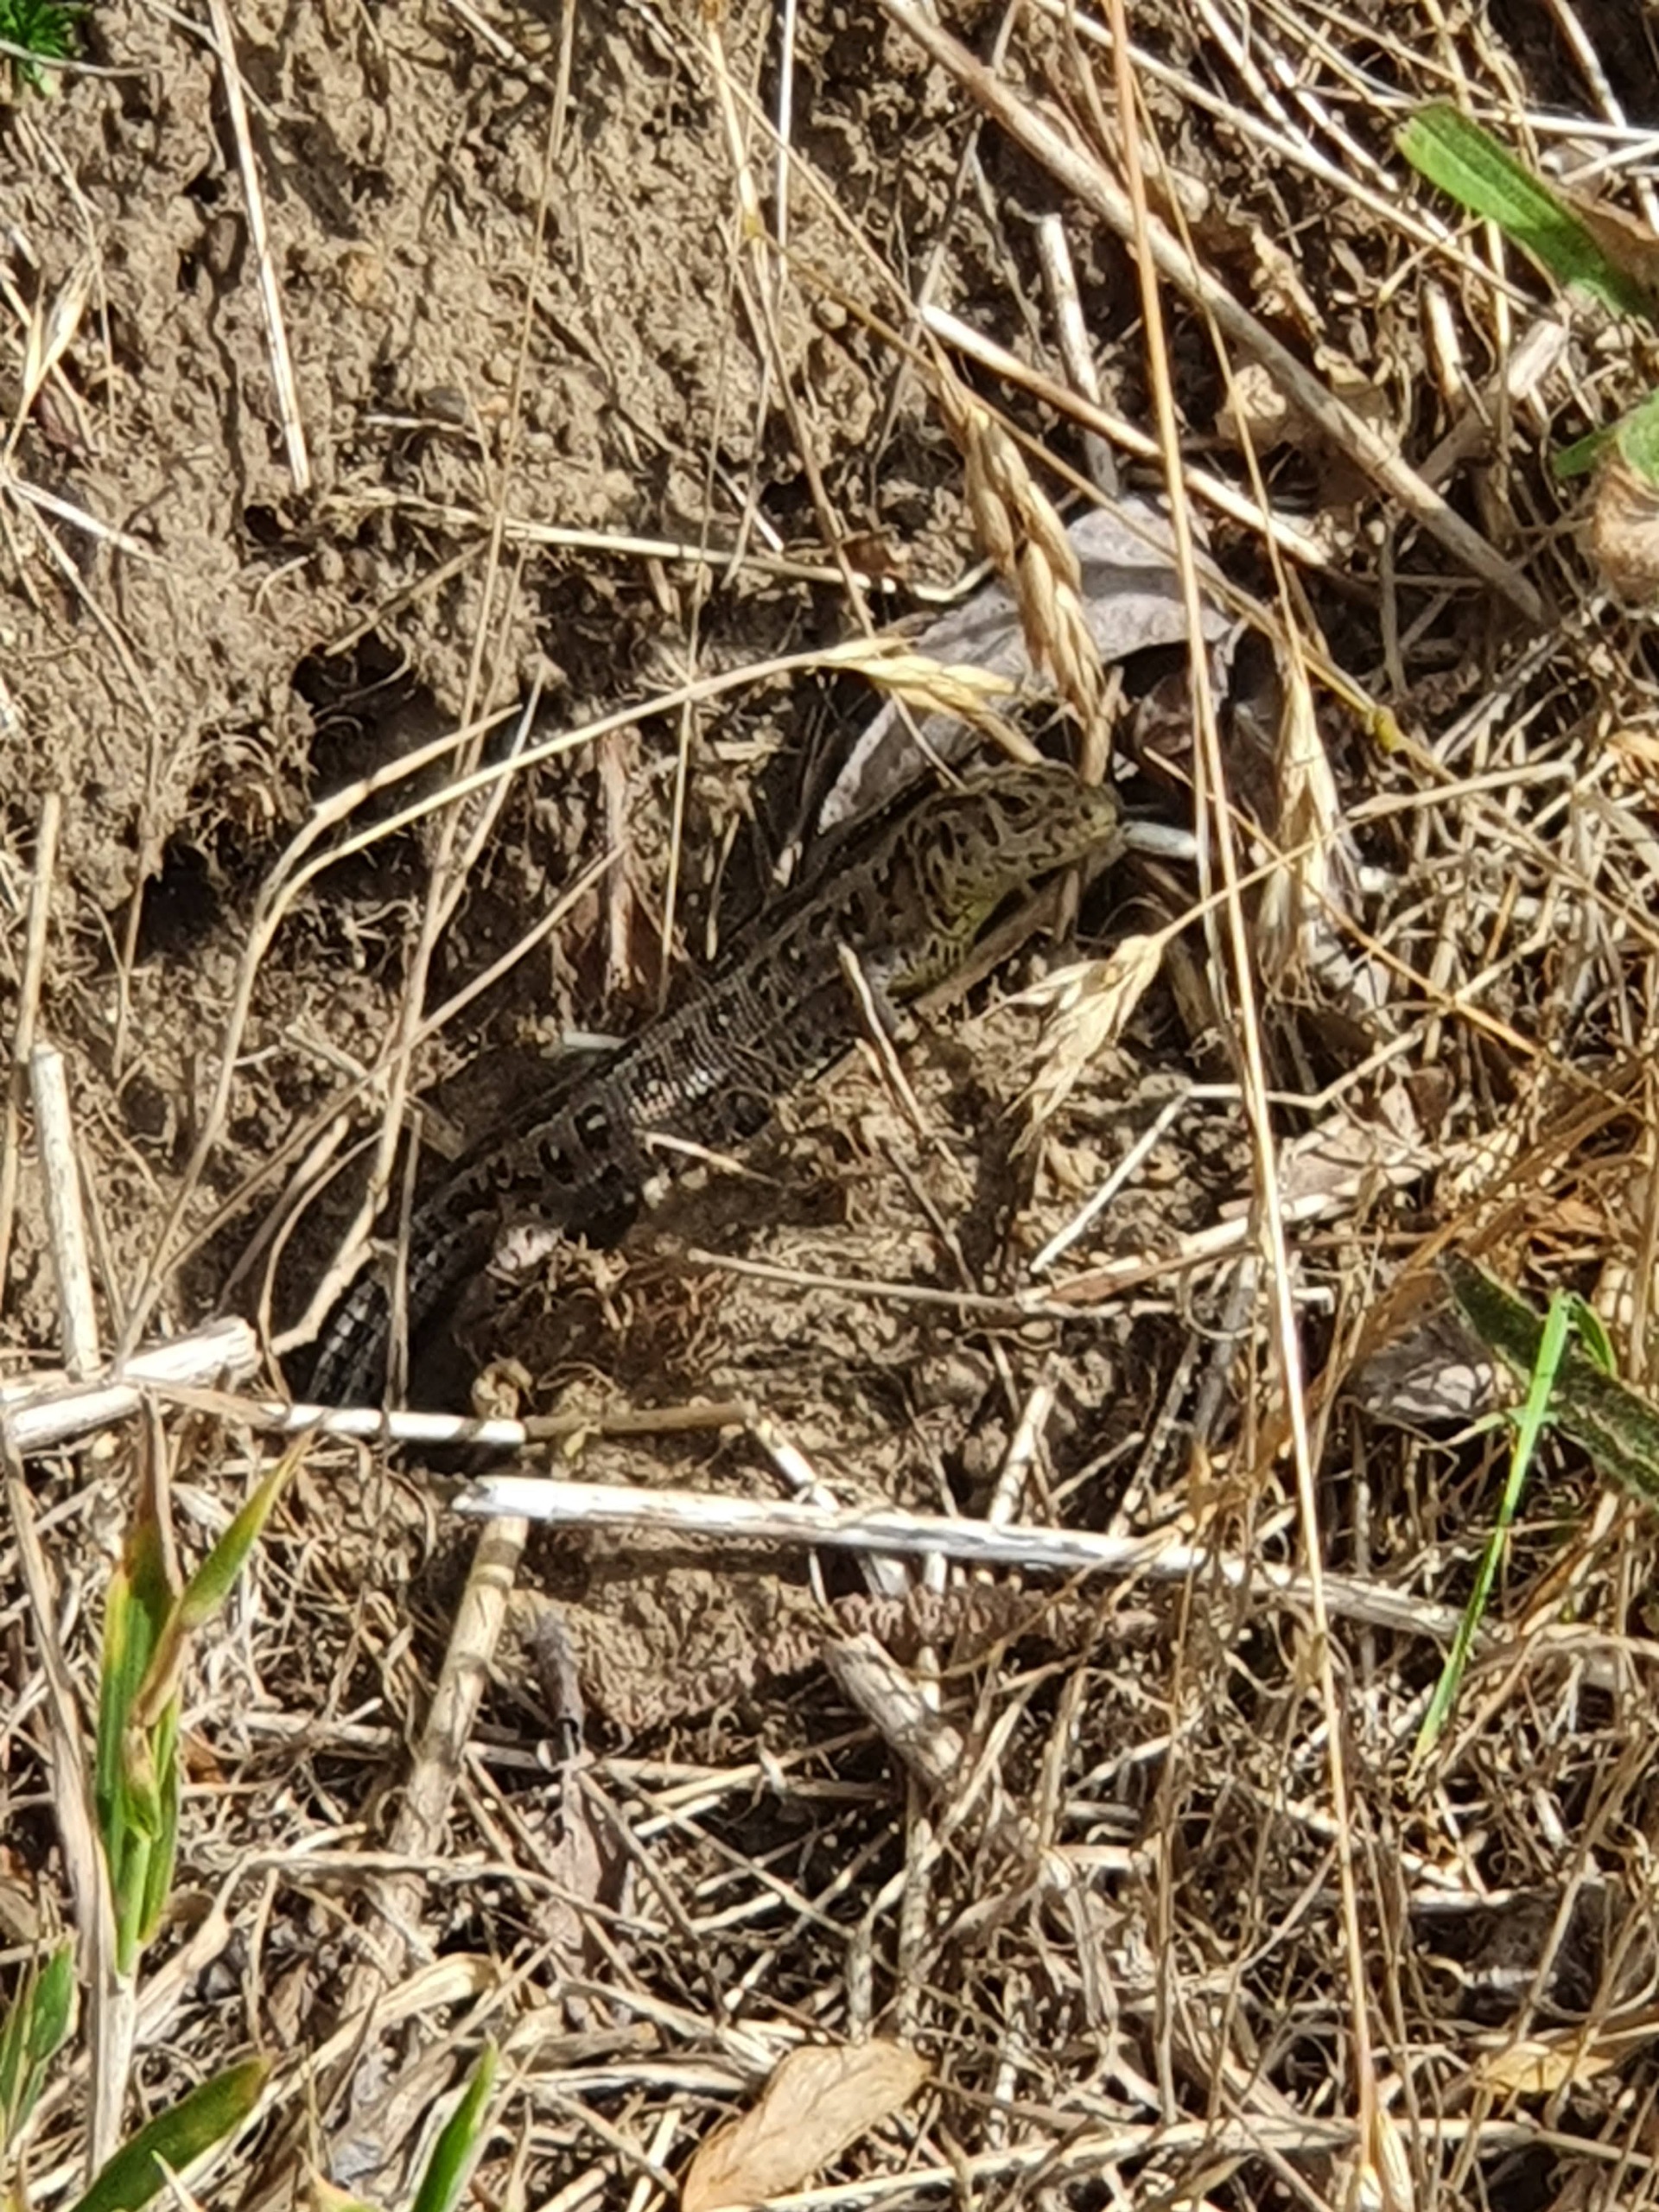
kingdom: Animalia
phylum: Chordata
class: Squamata
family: Lacertidae
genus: Lacerta
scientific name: Lacerta agilis
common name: Markfirben
